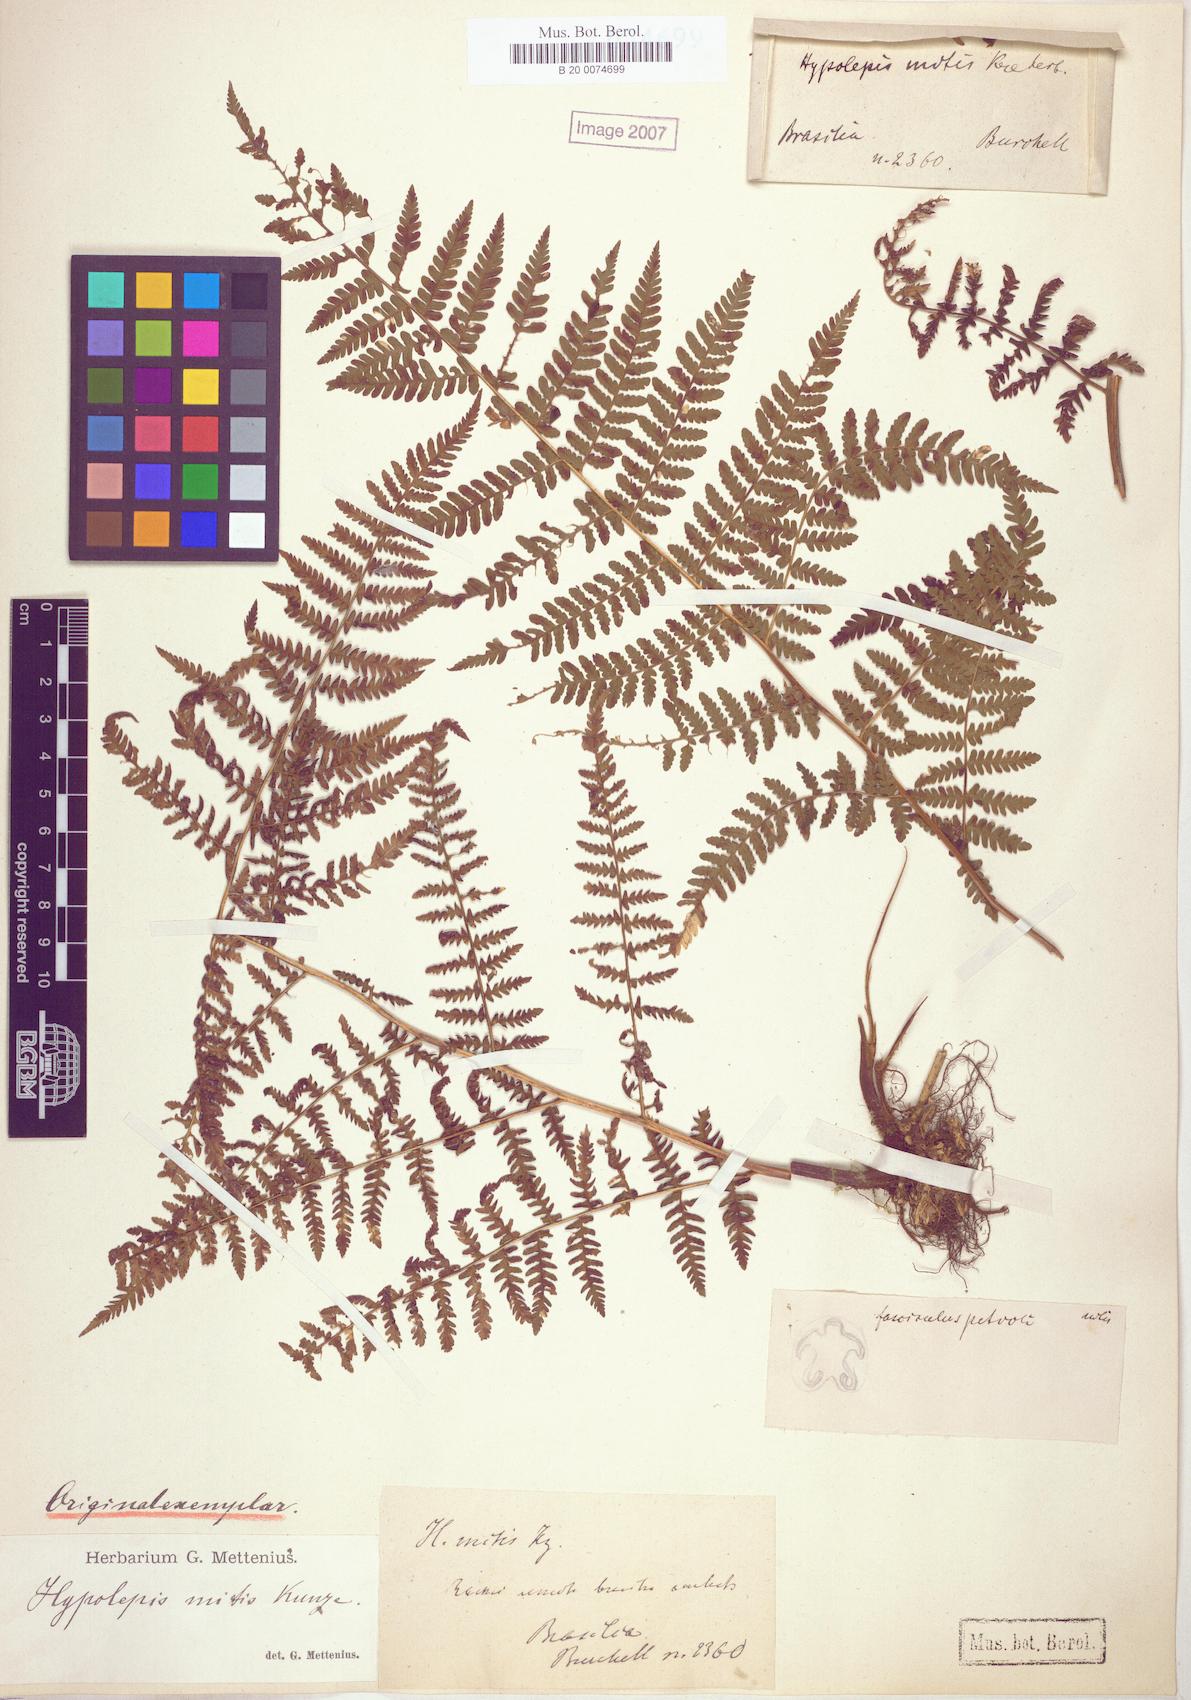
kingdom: Plantae
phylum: Tracheophyta
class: Polypodiopsida
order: Polypodiales
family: Dennstaedtiaceae
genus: Hypolepis
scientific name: Hypolepis mitis
